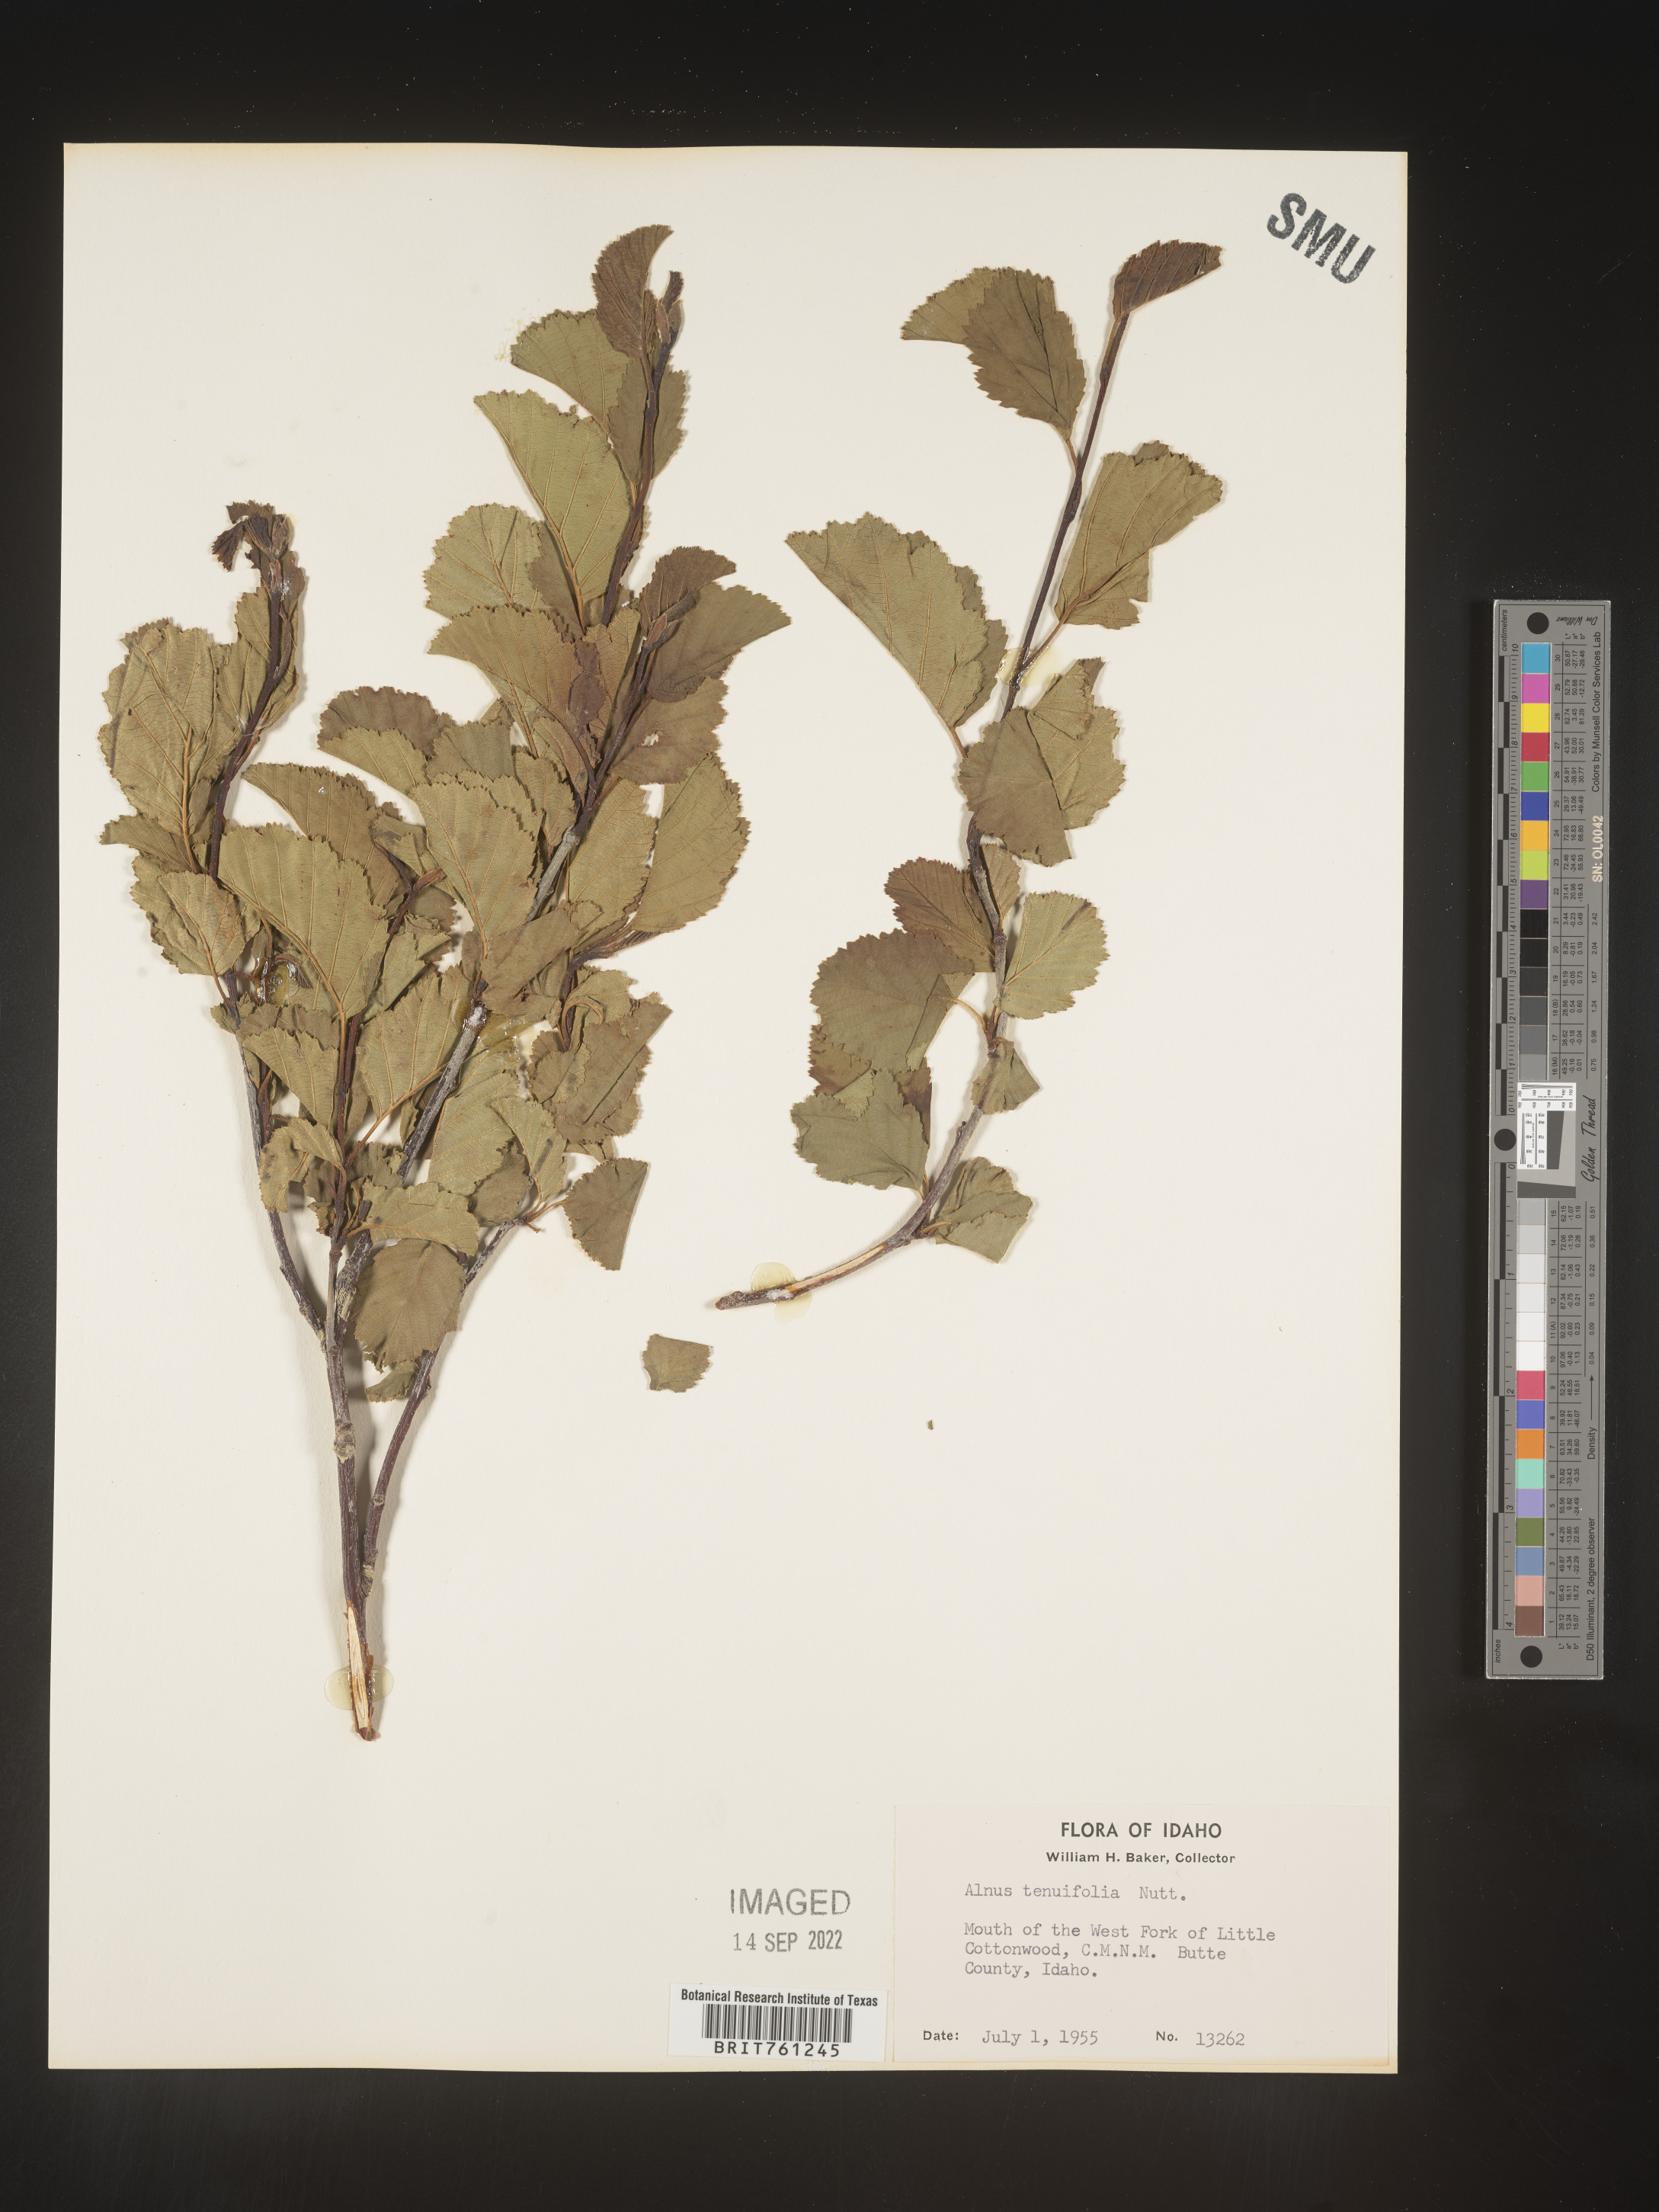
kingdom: Plantae
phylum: Tracheophyta
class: Magnoliopsida
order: Fagales
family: Betulaceae
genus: Alnus
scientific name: Alnus incana
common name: Grey alder
